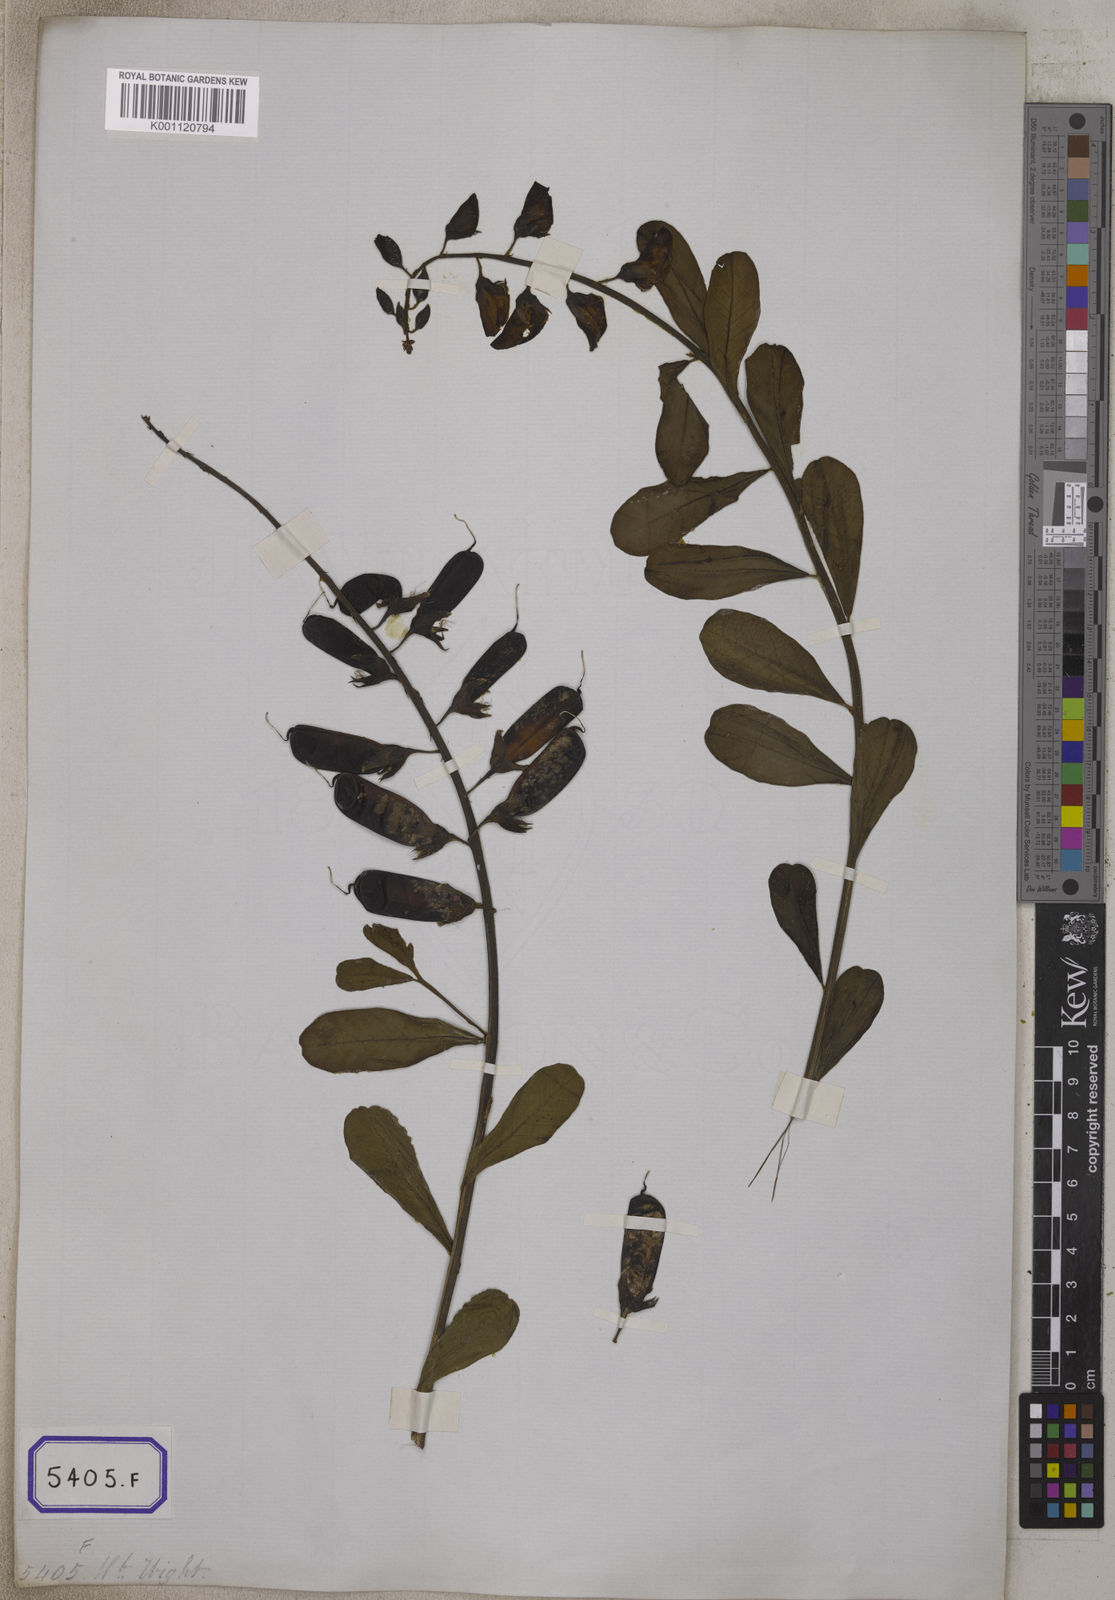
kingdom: Plantae
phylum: Tracheophyta
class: Magnoliopsida
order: Fabales
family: Fabaceae
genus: Crotalaria
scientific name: Crotalaria retusa
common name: Rattleweed
